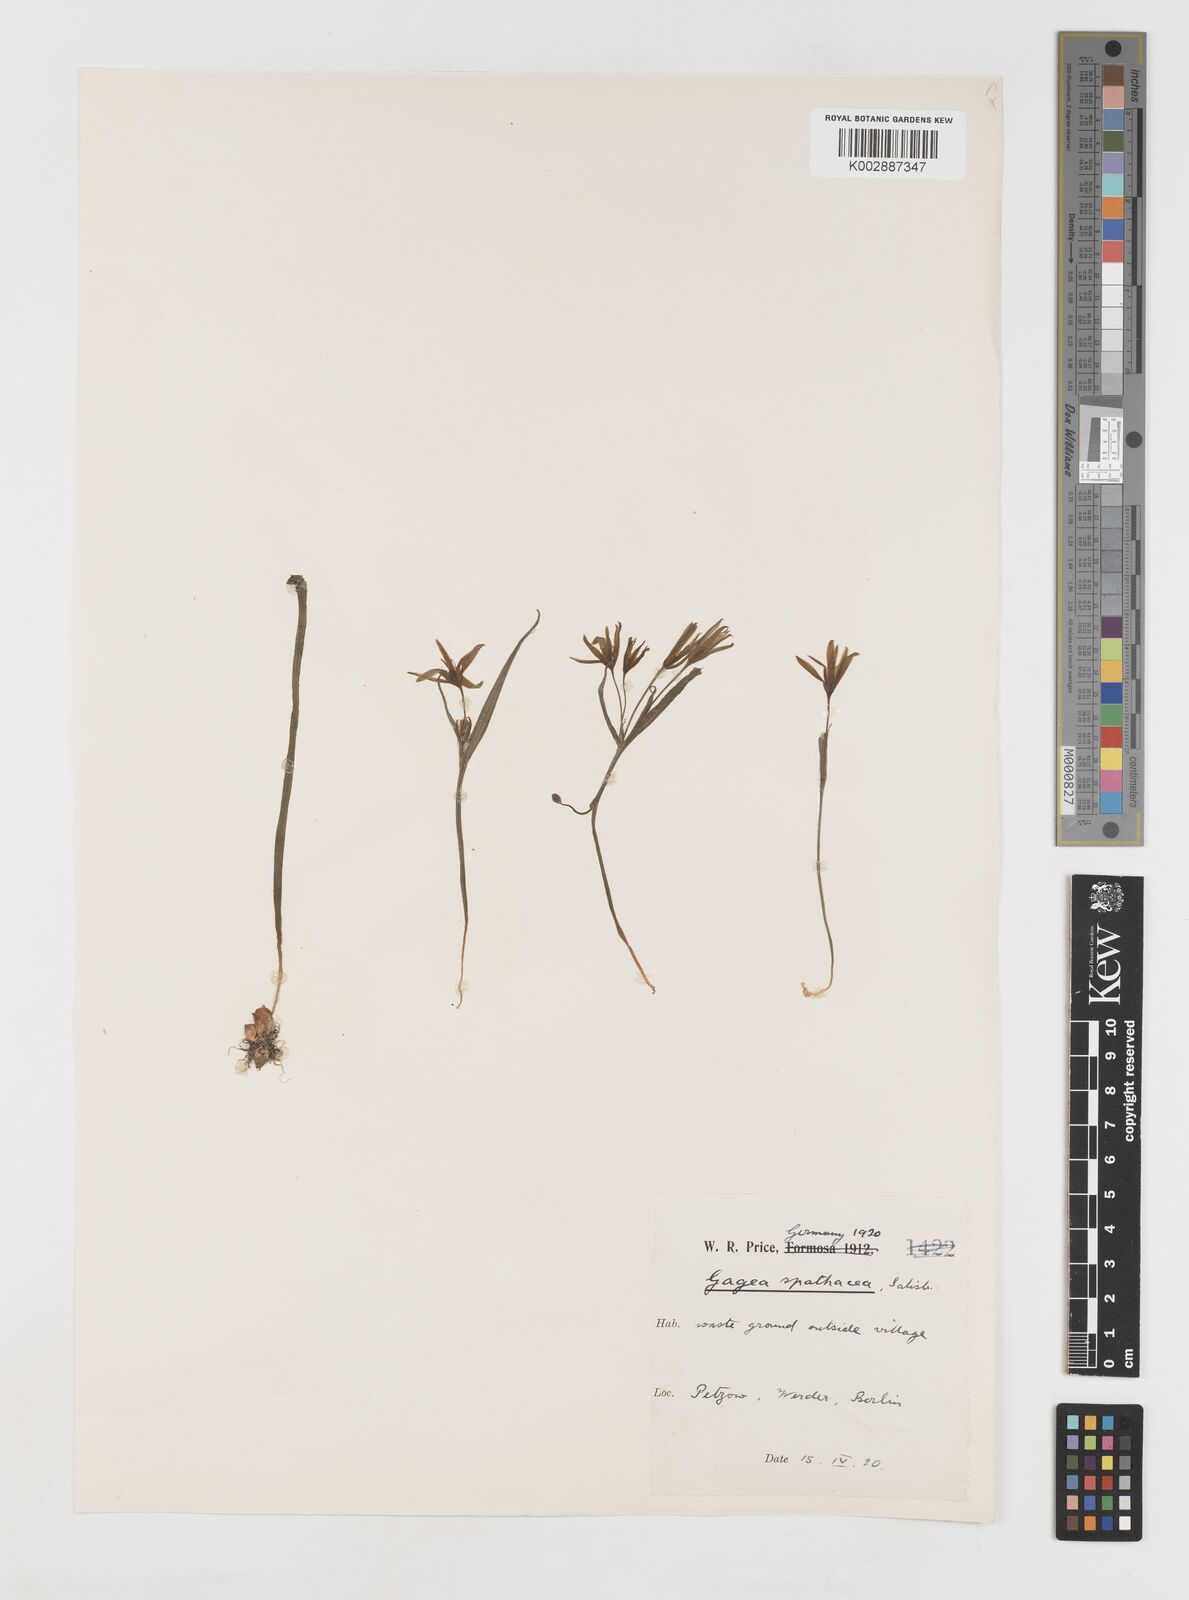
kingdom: Plantae
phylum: Tracheophyta
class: Liliopsida
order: Liliales
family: Liliaceae
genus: Gagea
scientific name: Gagea spathacea
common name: Belgian gagea
